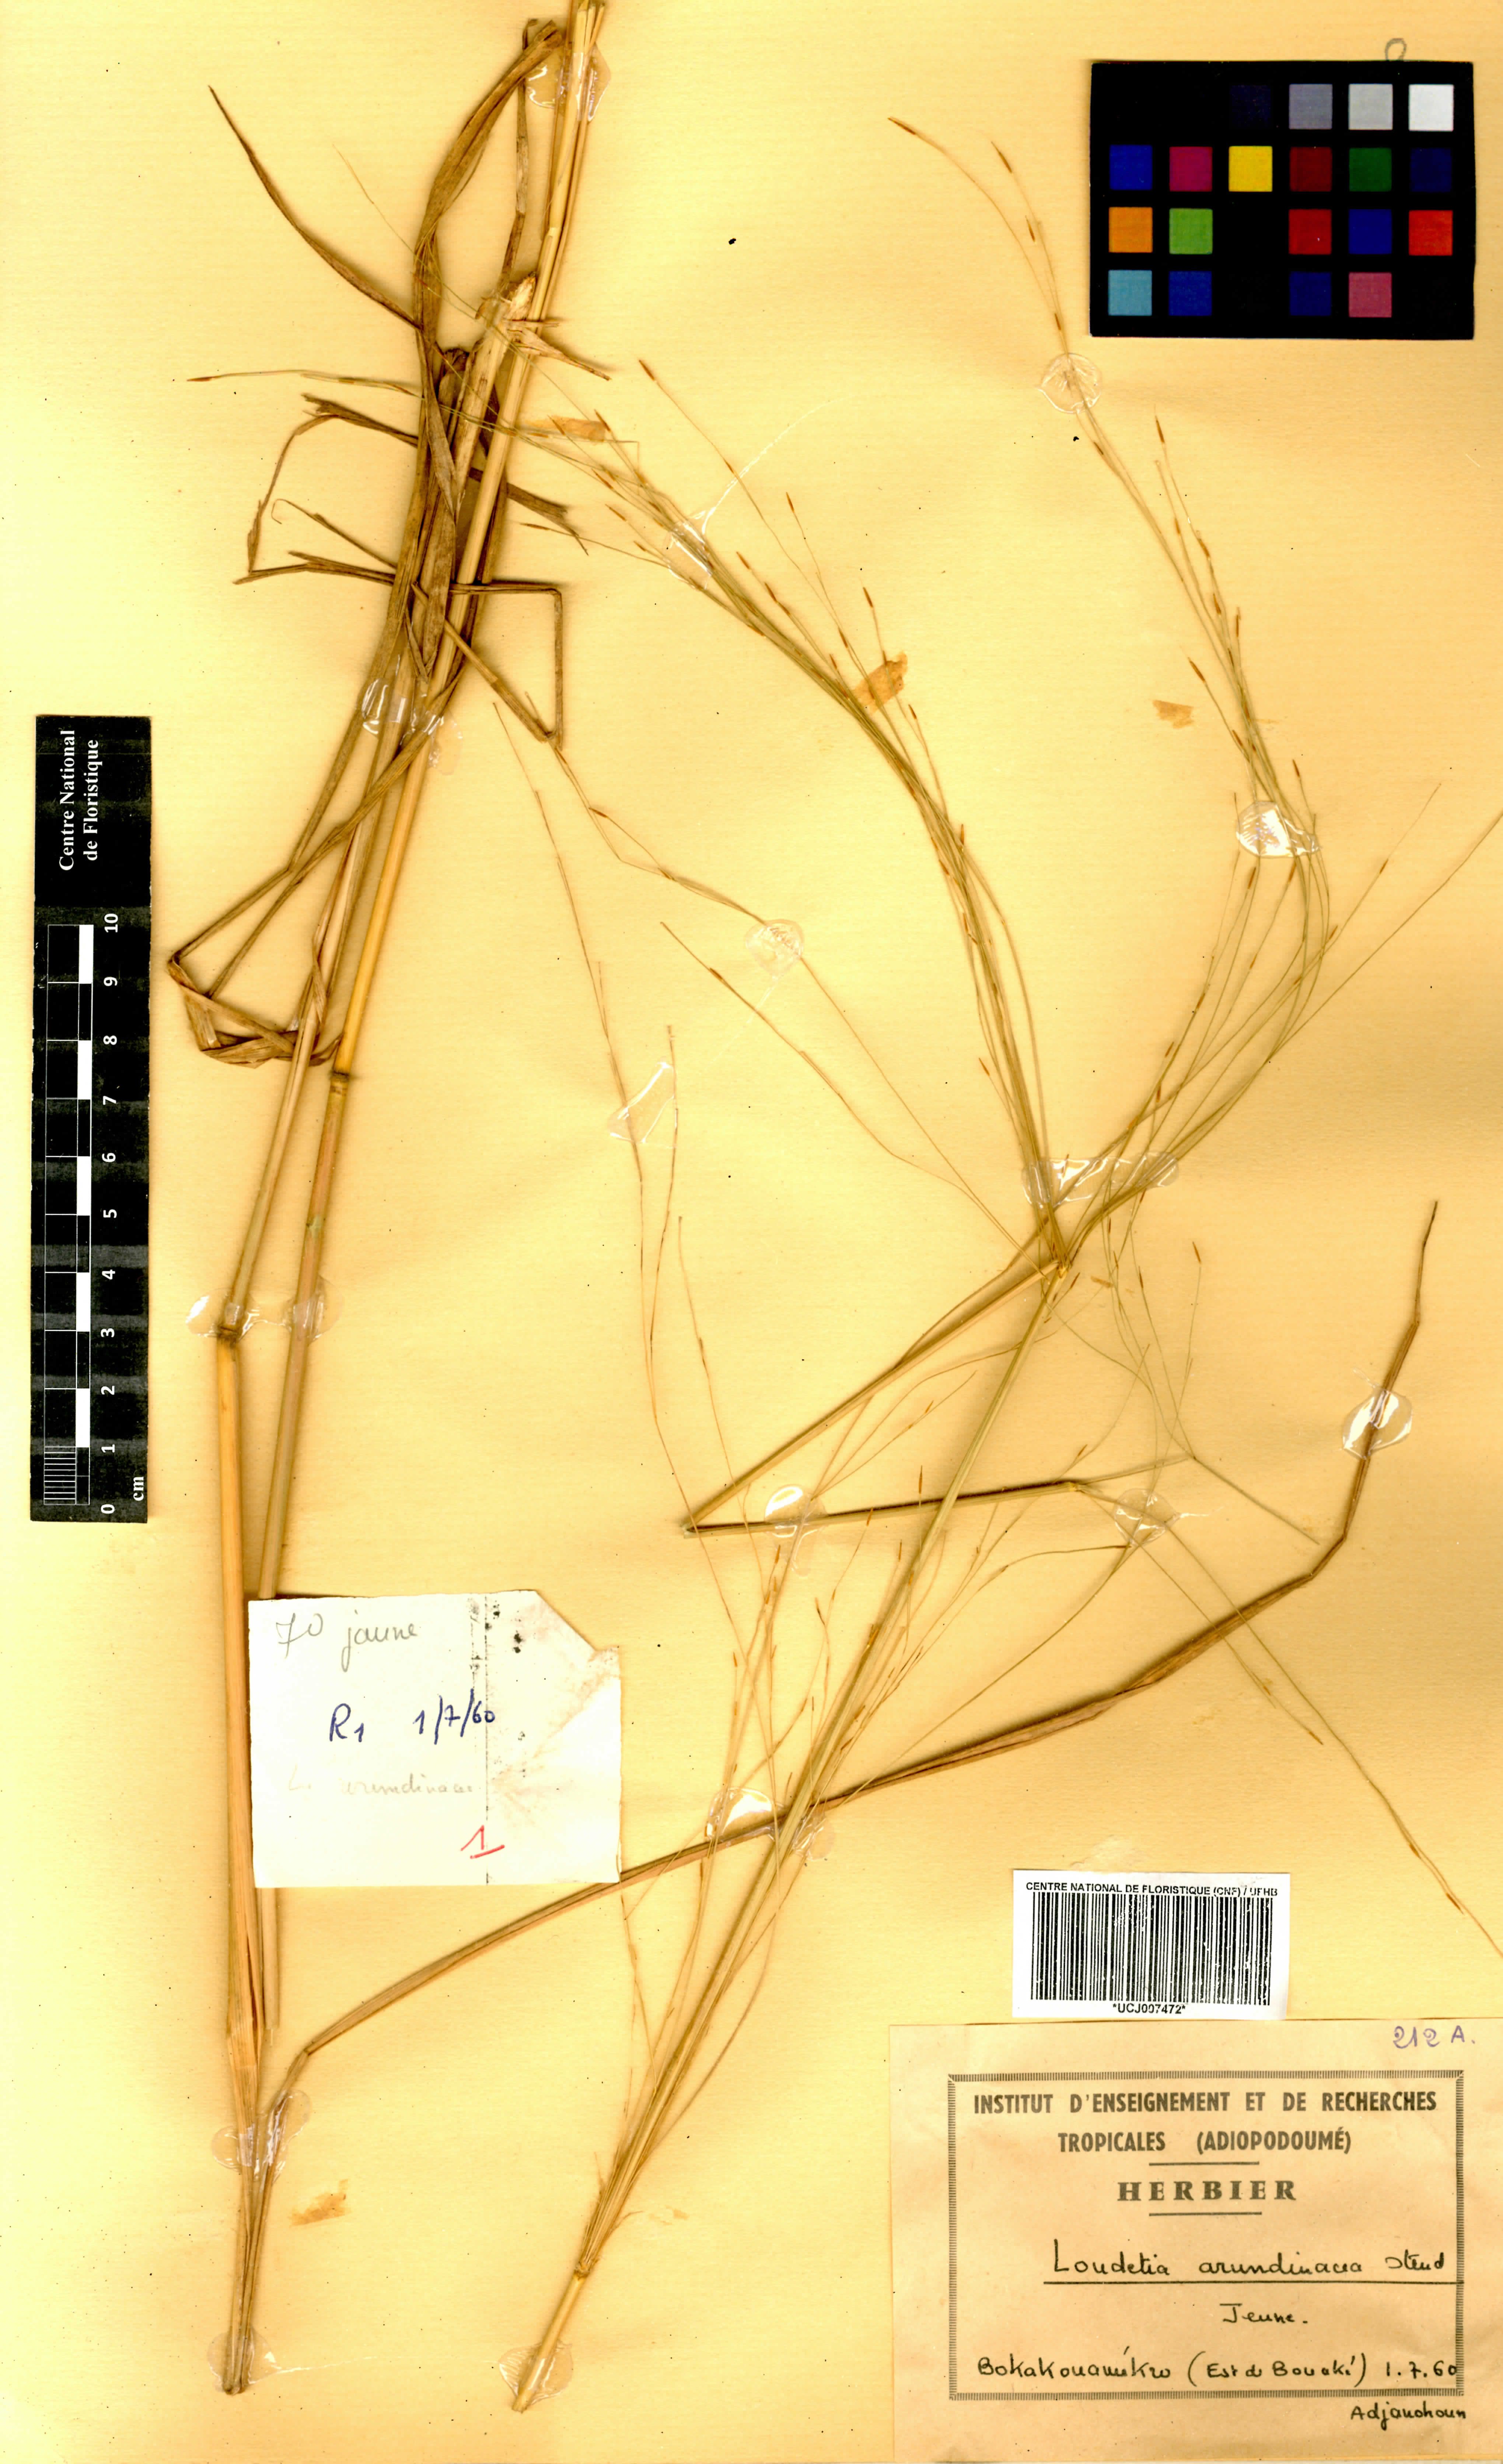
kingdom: Plantae
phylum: Tracheophyta
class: Liliopsida
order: Poales
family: Poaceae
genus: Loudetia
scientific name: Loudetia arundinacea
